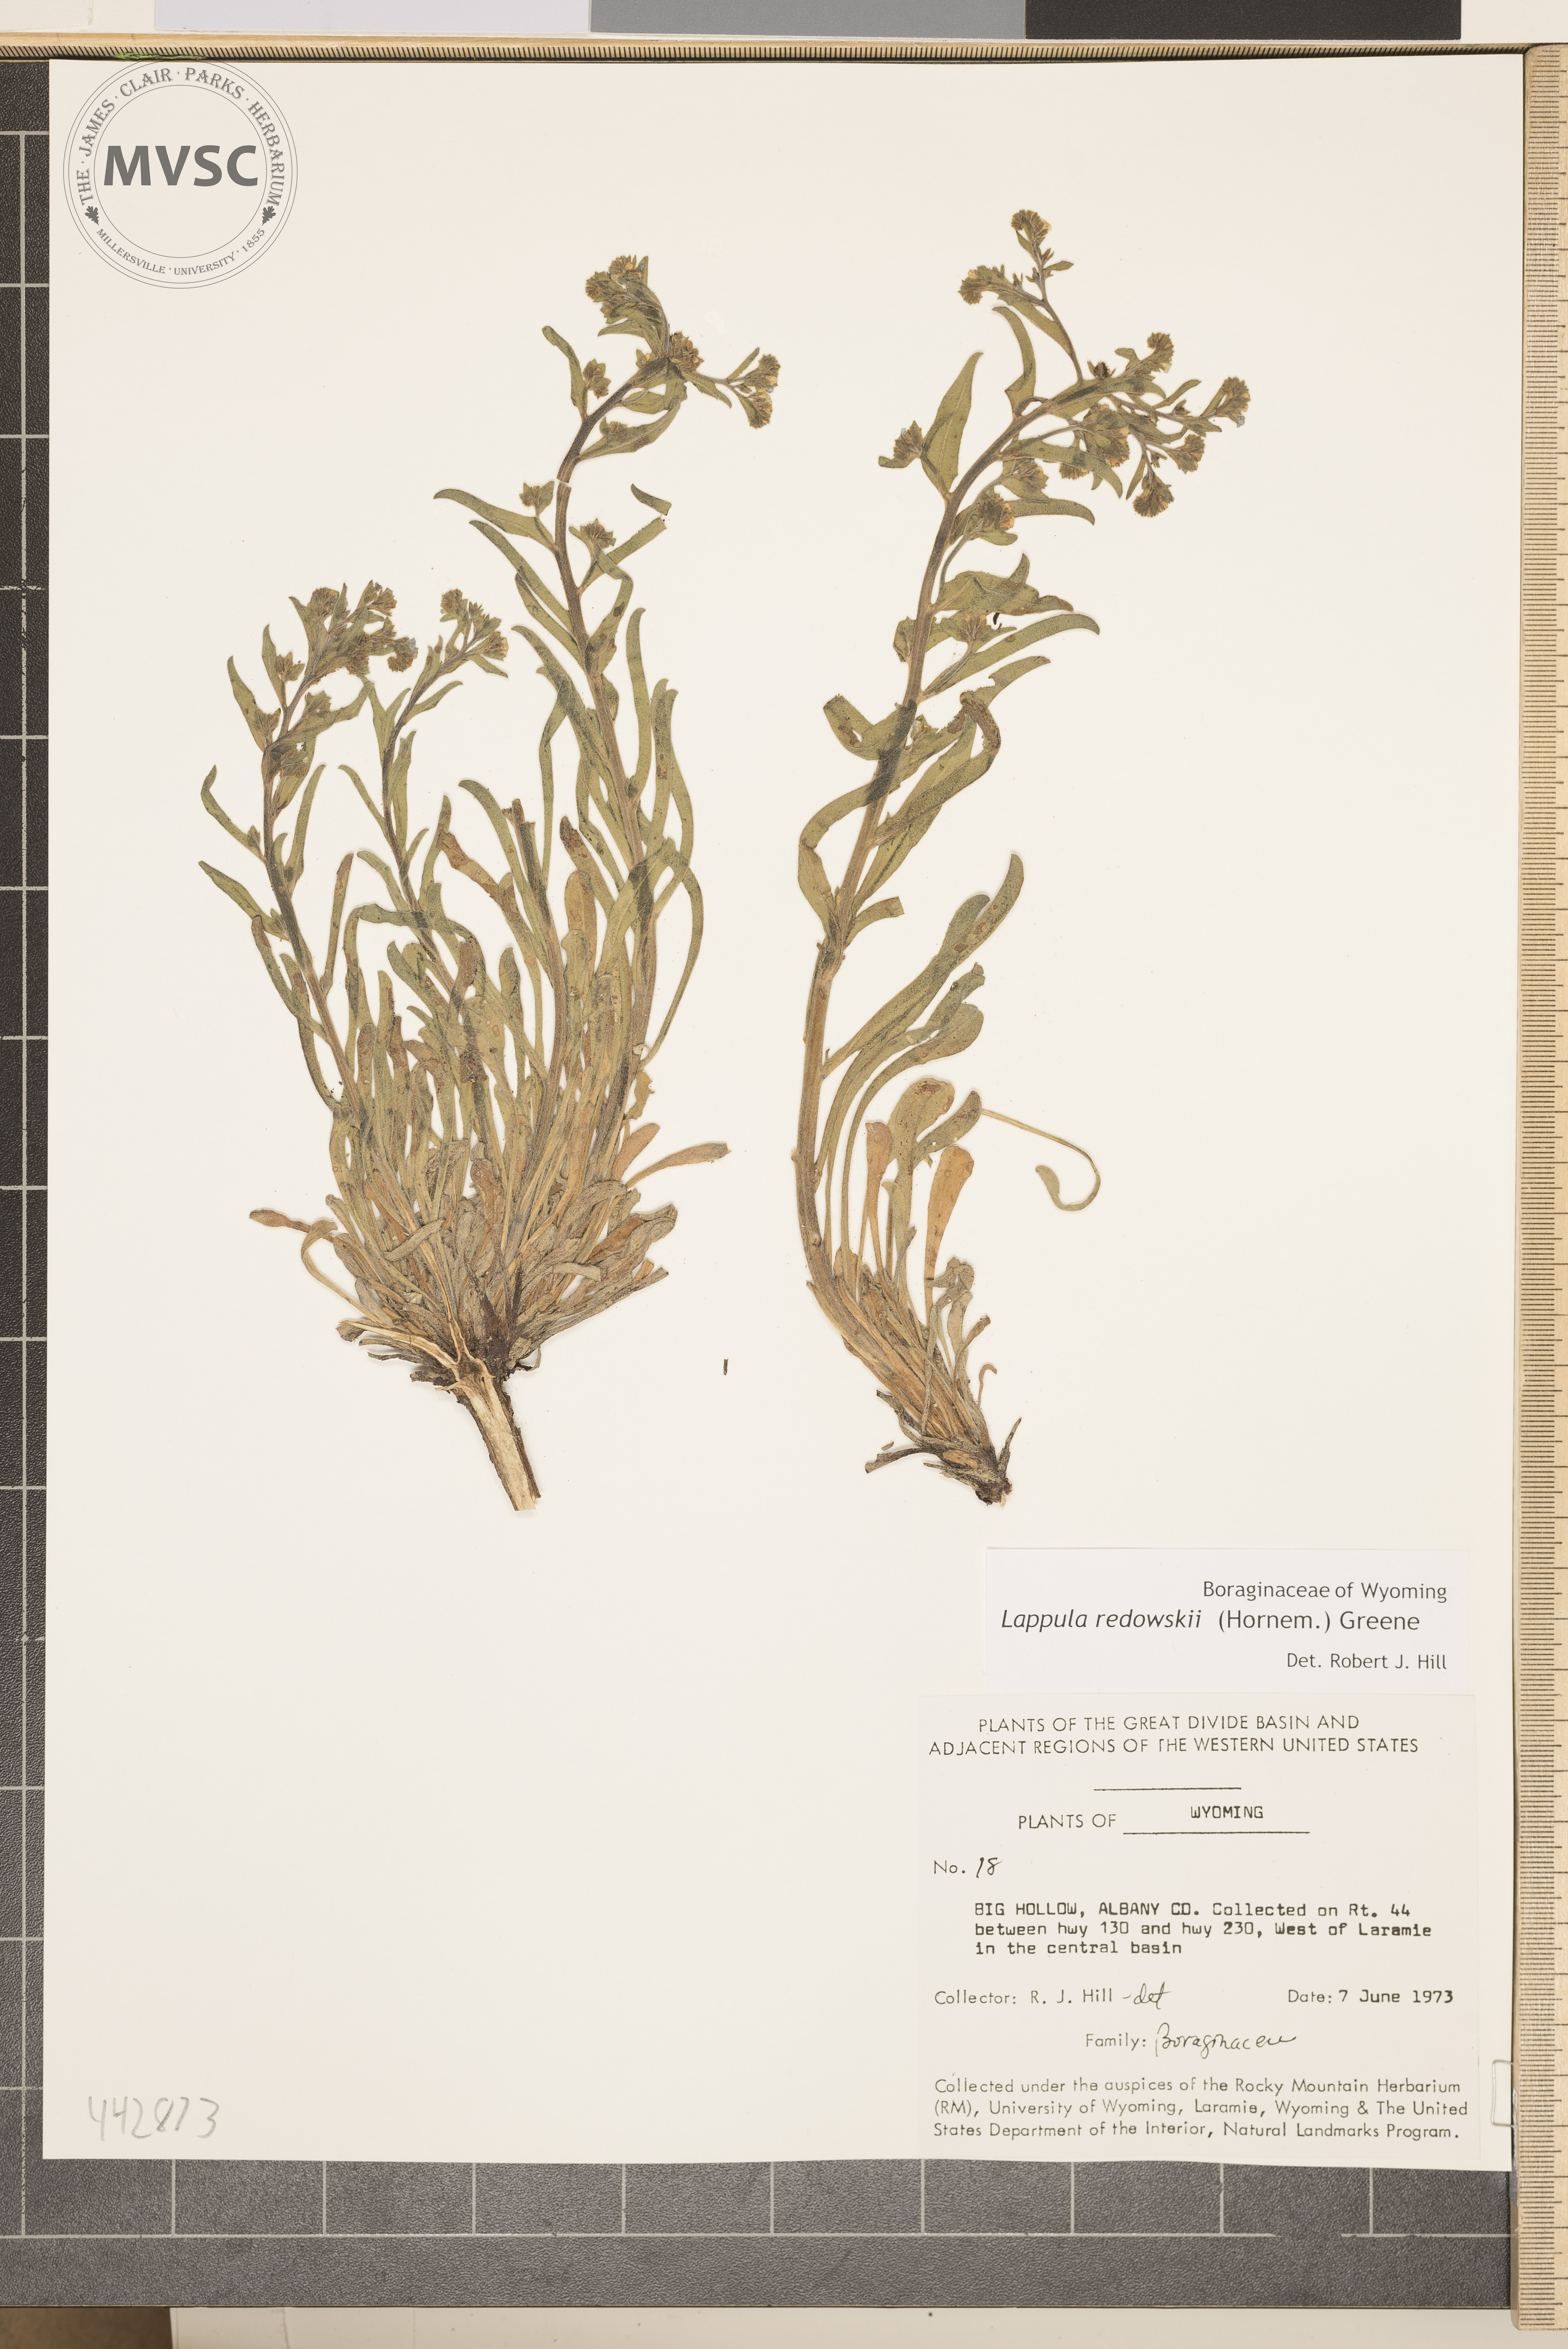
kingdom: Plantae
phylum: Tracheophyta
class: Magnoliopsida
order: Boraginales
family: Boraginaceae
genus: Lappula
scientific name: Lappula redowskii
